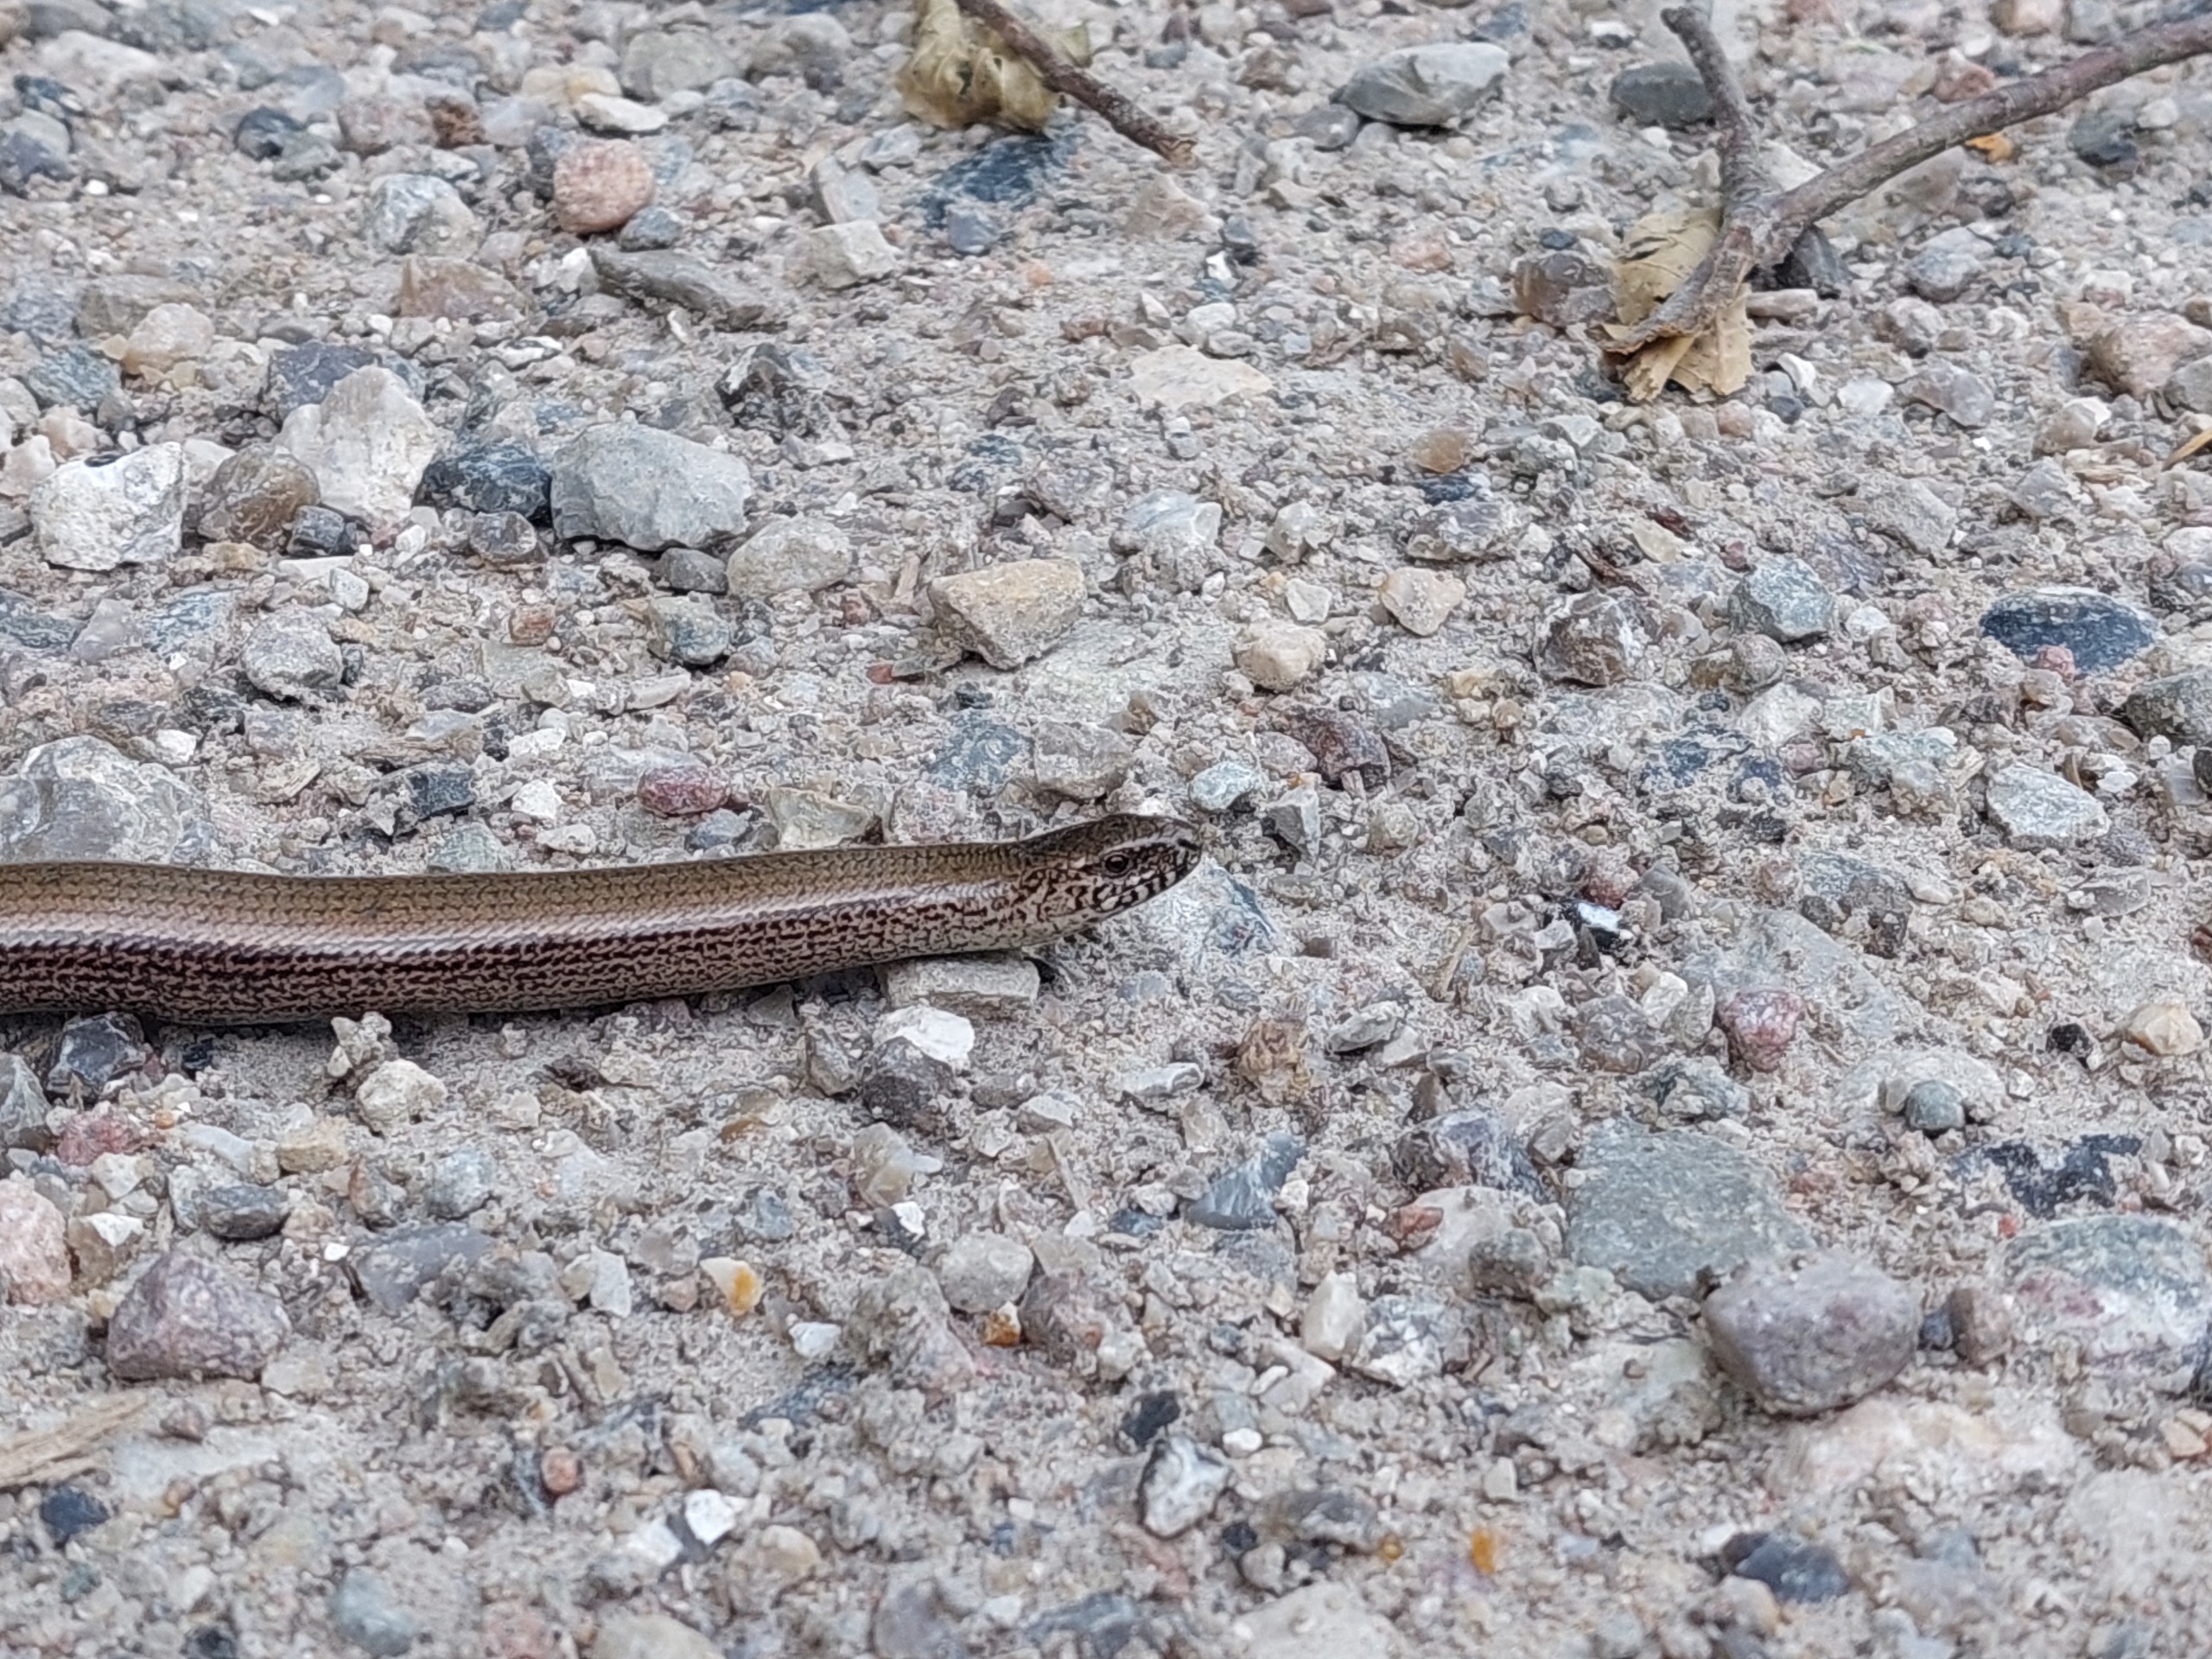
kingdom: Animalia
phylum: Chordata
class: Squamata
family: Anguidae
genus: Anguis
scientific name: Anguis fragilis
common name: Stålorm
